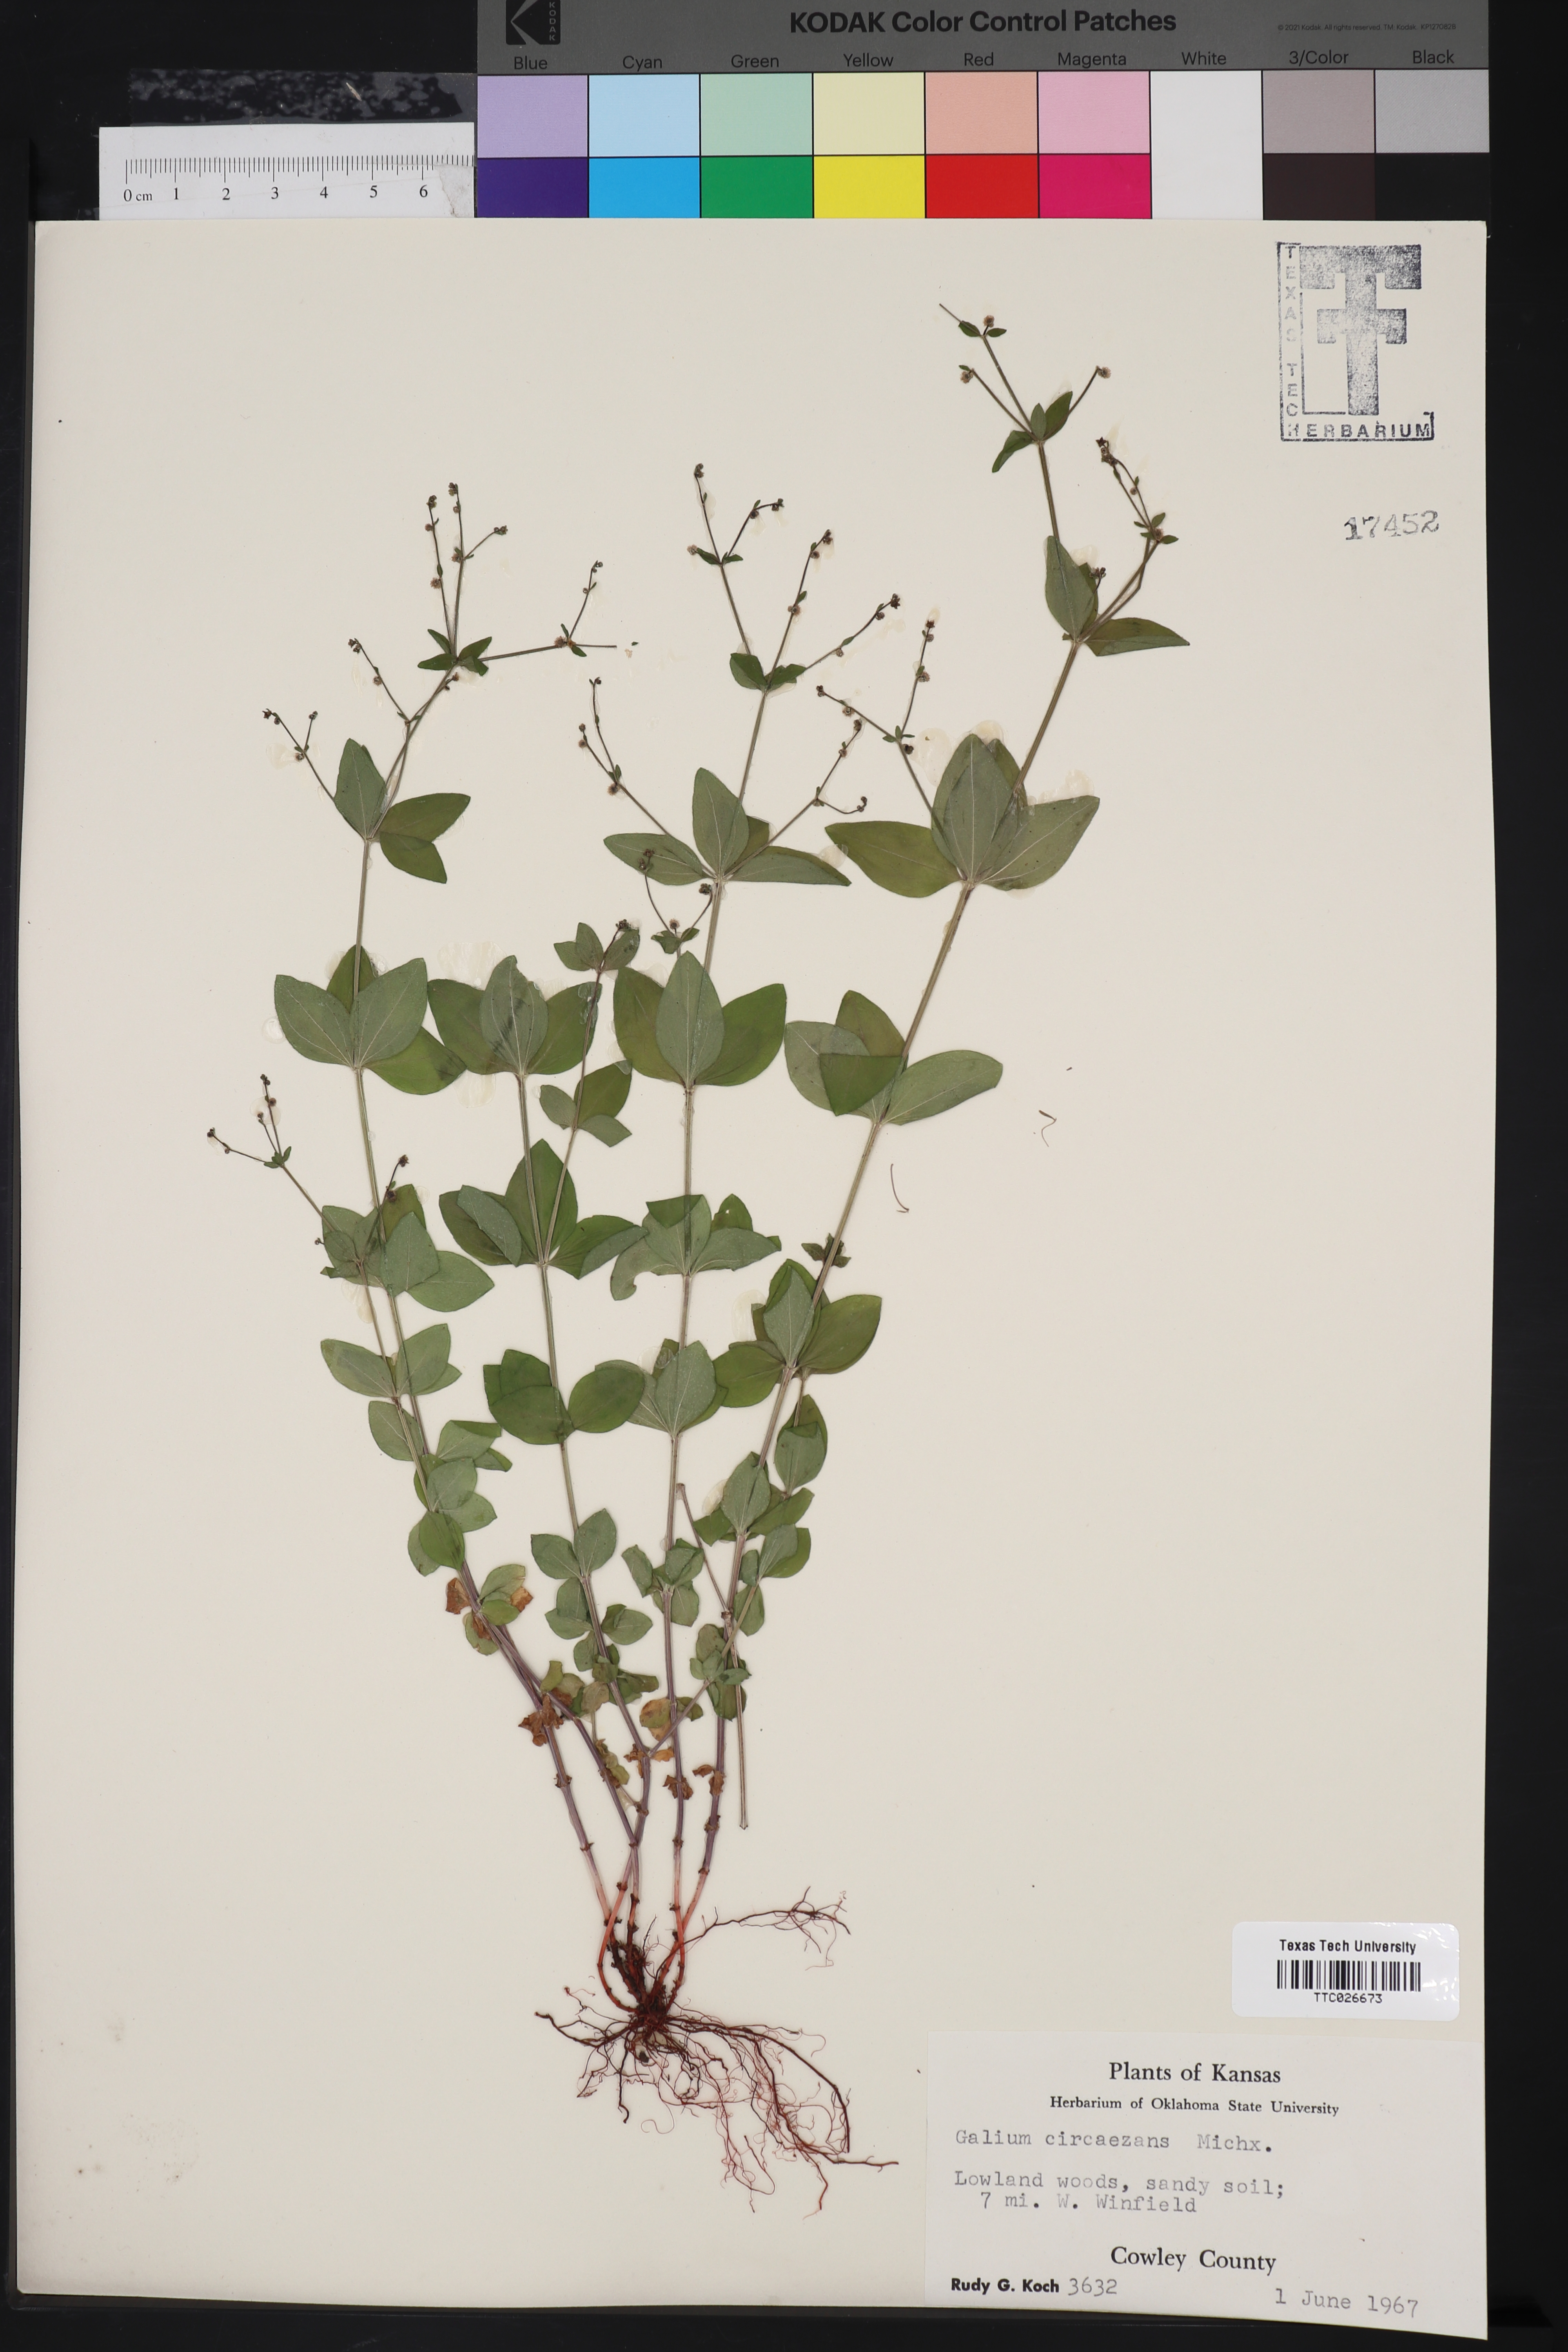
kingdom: Plantae
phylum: Tracheophyta
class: Magnoliopsida
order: Gentianales
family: Rubiaceae
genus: Galium
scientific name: Galium circaezans
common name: Forest bedstraw
